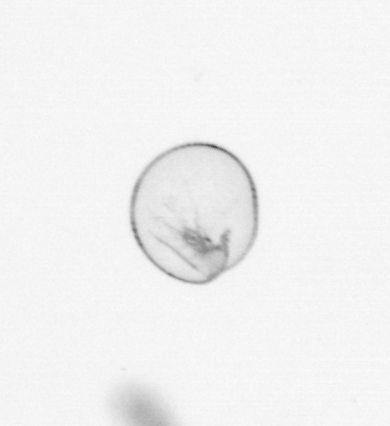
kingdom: Chromista
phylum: Myzozoa
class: Dinophyceae
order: Noctilucales
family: Noctilucaceae
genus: Noctiluca
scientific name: Noctiluca scintillans
